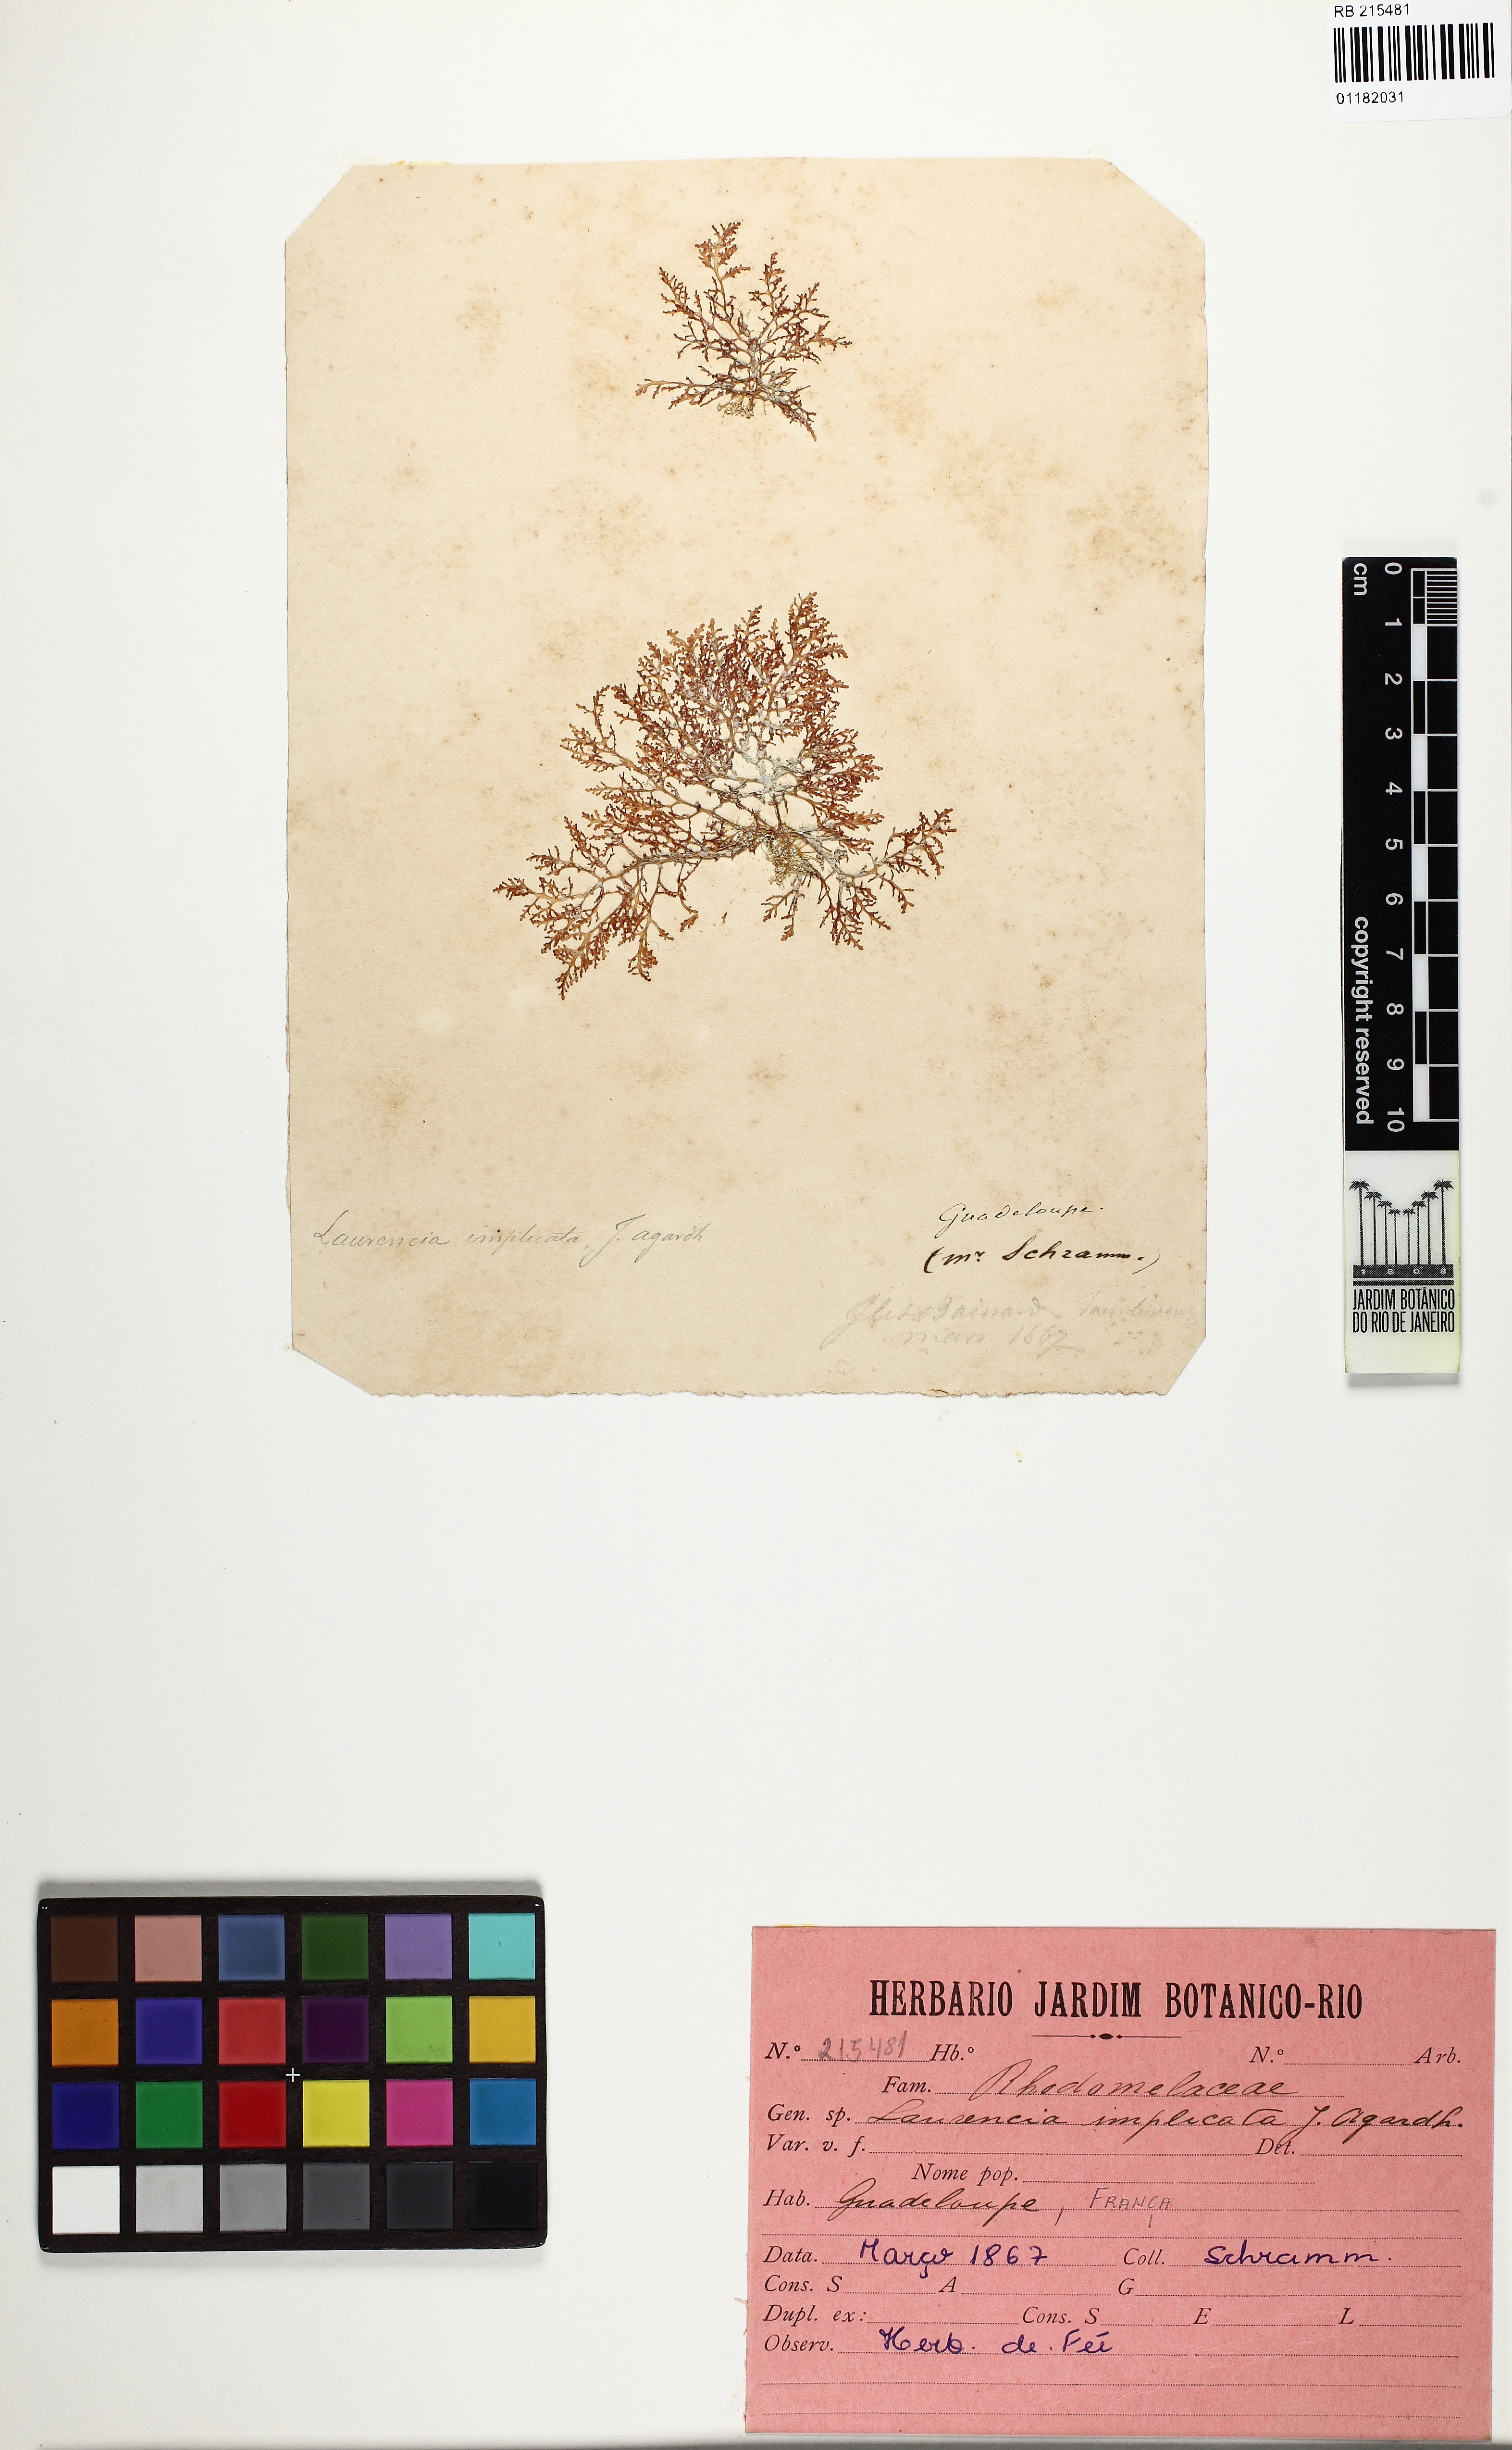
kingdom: Plantae
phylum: Rhodophyta
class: Florideophyceae
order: Ceramiales
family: Rhodomelaceae
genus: Laurencia
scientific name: Laurencia intricata
